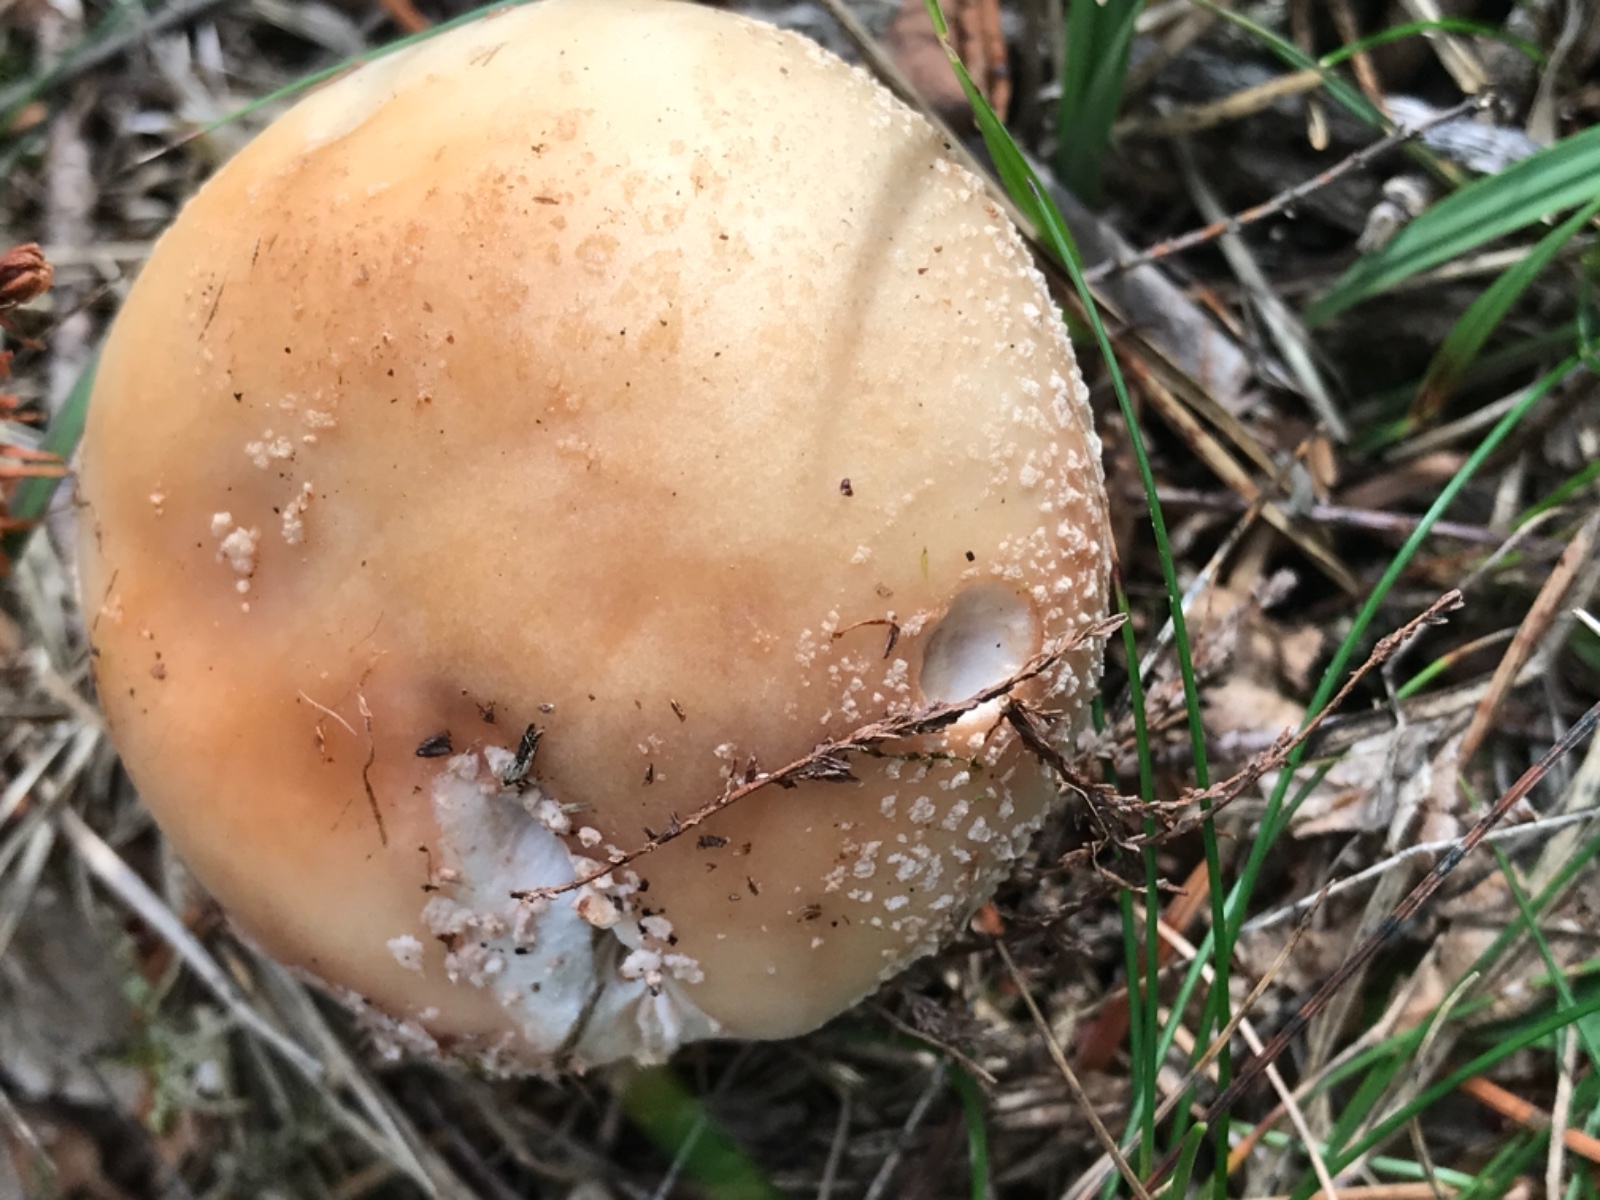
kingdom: Fungi
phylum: Basidiomycota
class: Agaricomycetes
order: Agaricales
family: Amanitaceae
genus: Amanita
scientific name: Amanita rubescens
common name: rødmende fluesvamp
